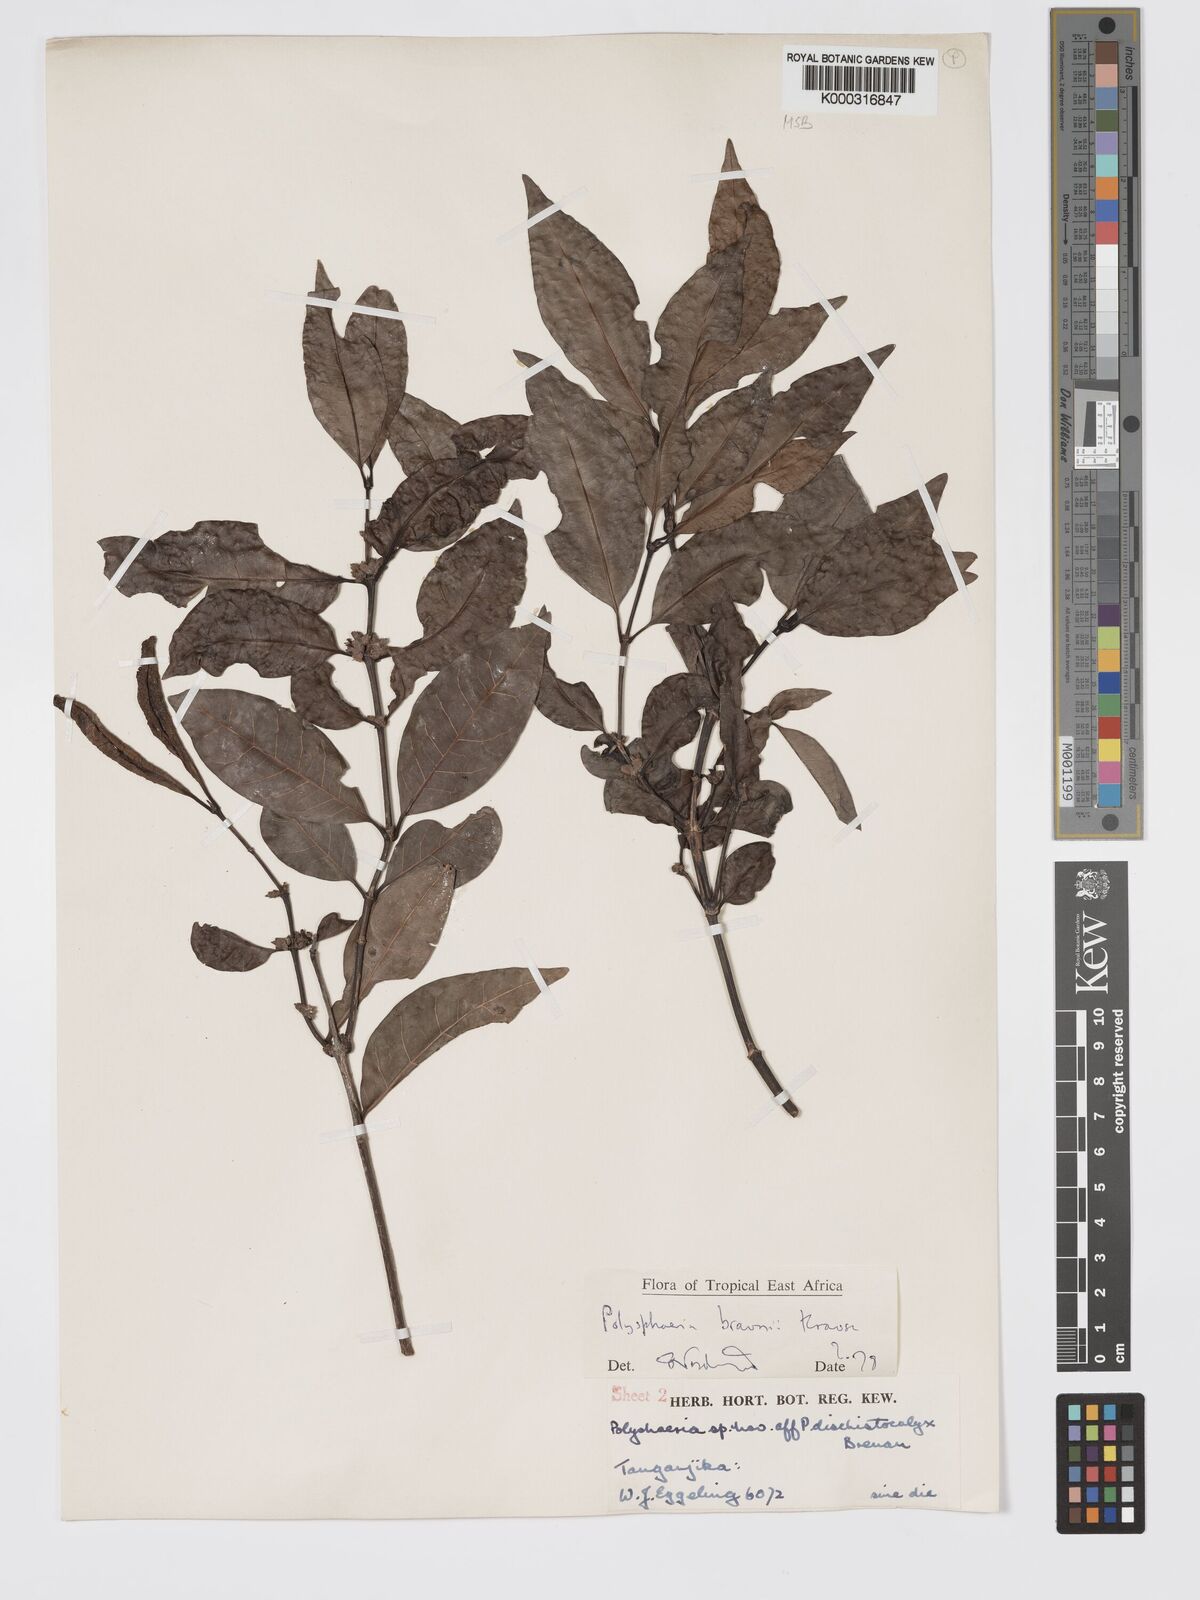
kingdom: Plantae
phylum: Tracheophyta
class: Magnoliopsida
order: Gentianales
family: Rubiaceae
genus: Polysphaeria
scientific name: Polysphaeria braunii
